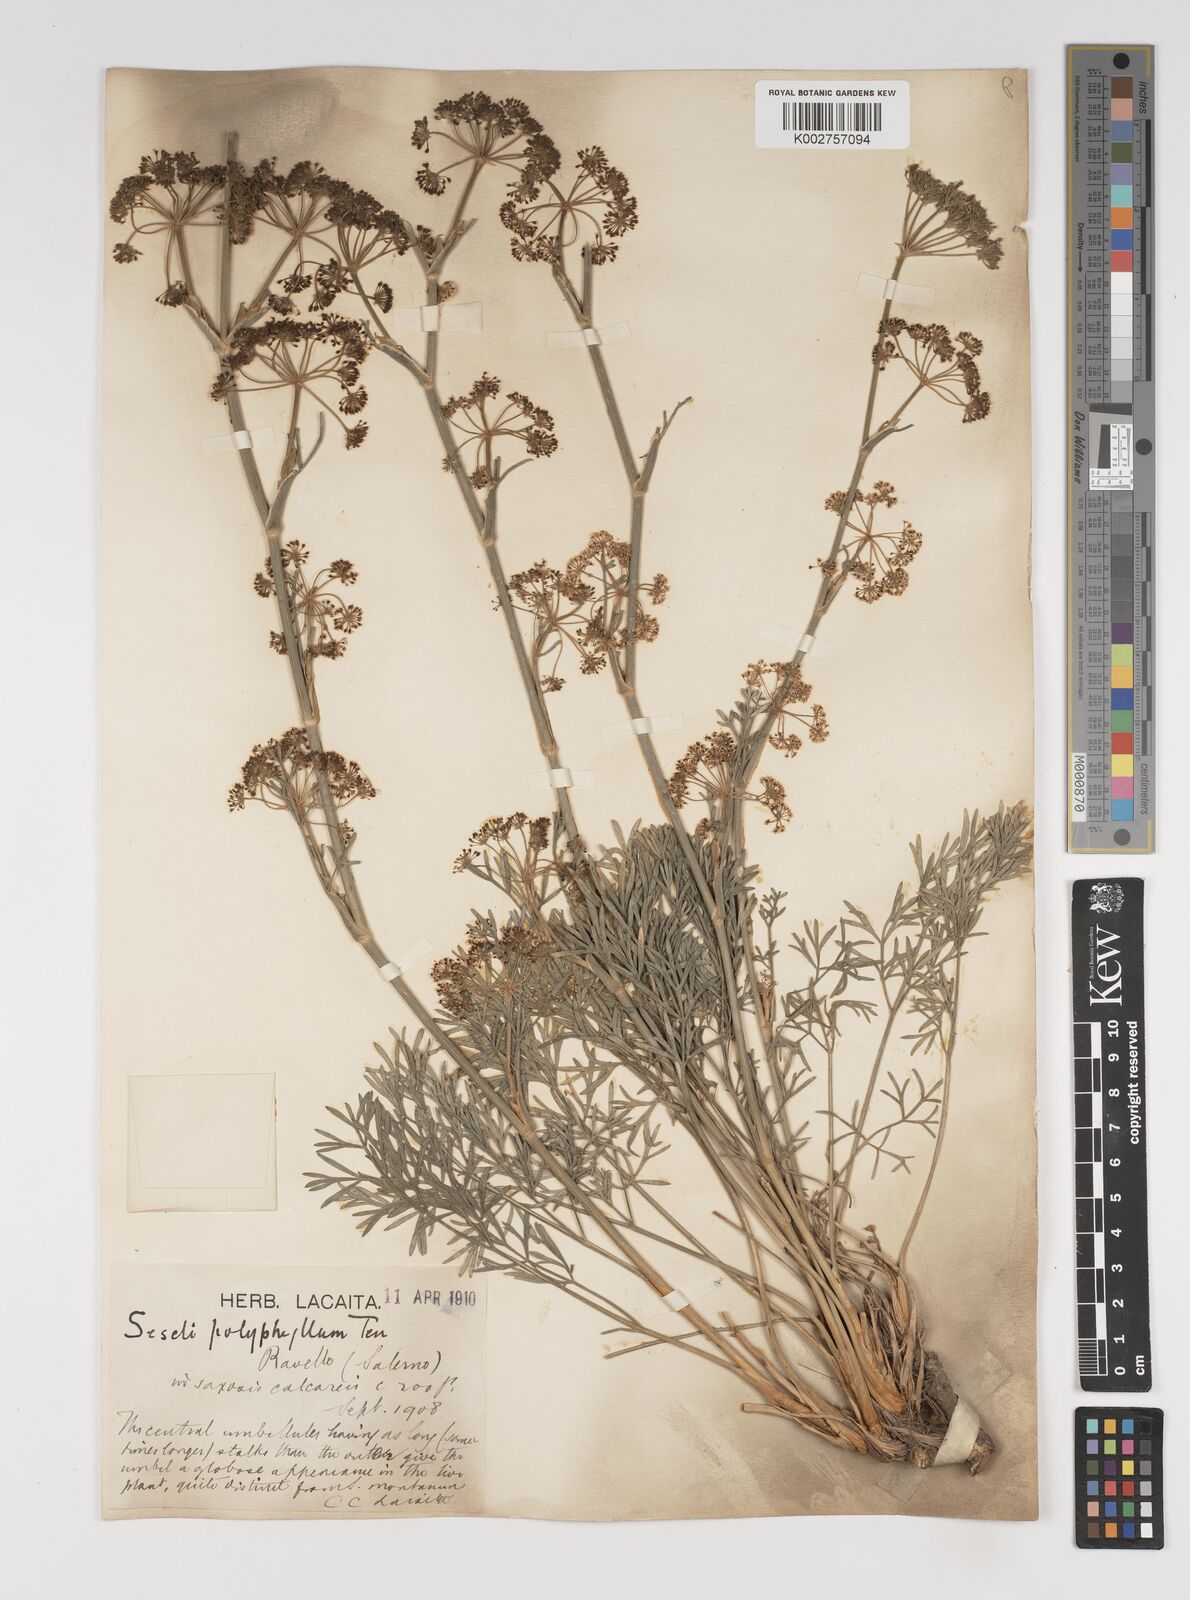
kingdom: Plantae
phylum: Tracheophyta
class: Magnoliopsida
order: Apiales
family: Apiaceae
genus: Seseli
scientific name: Seseli montanum
